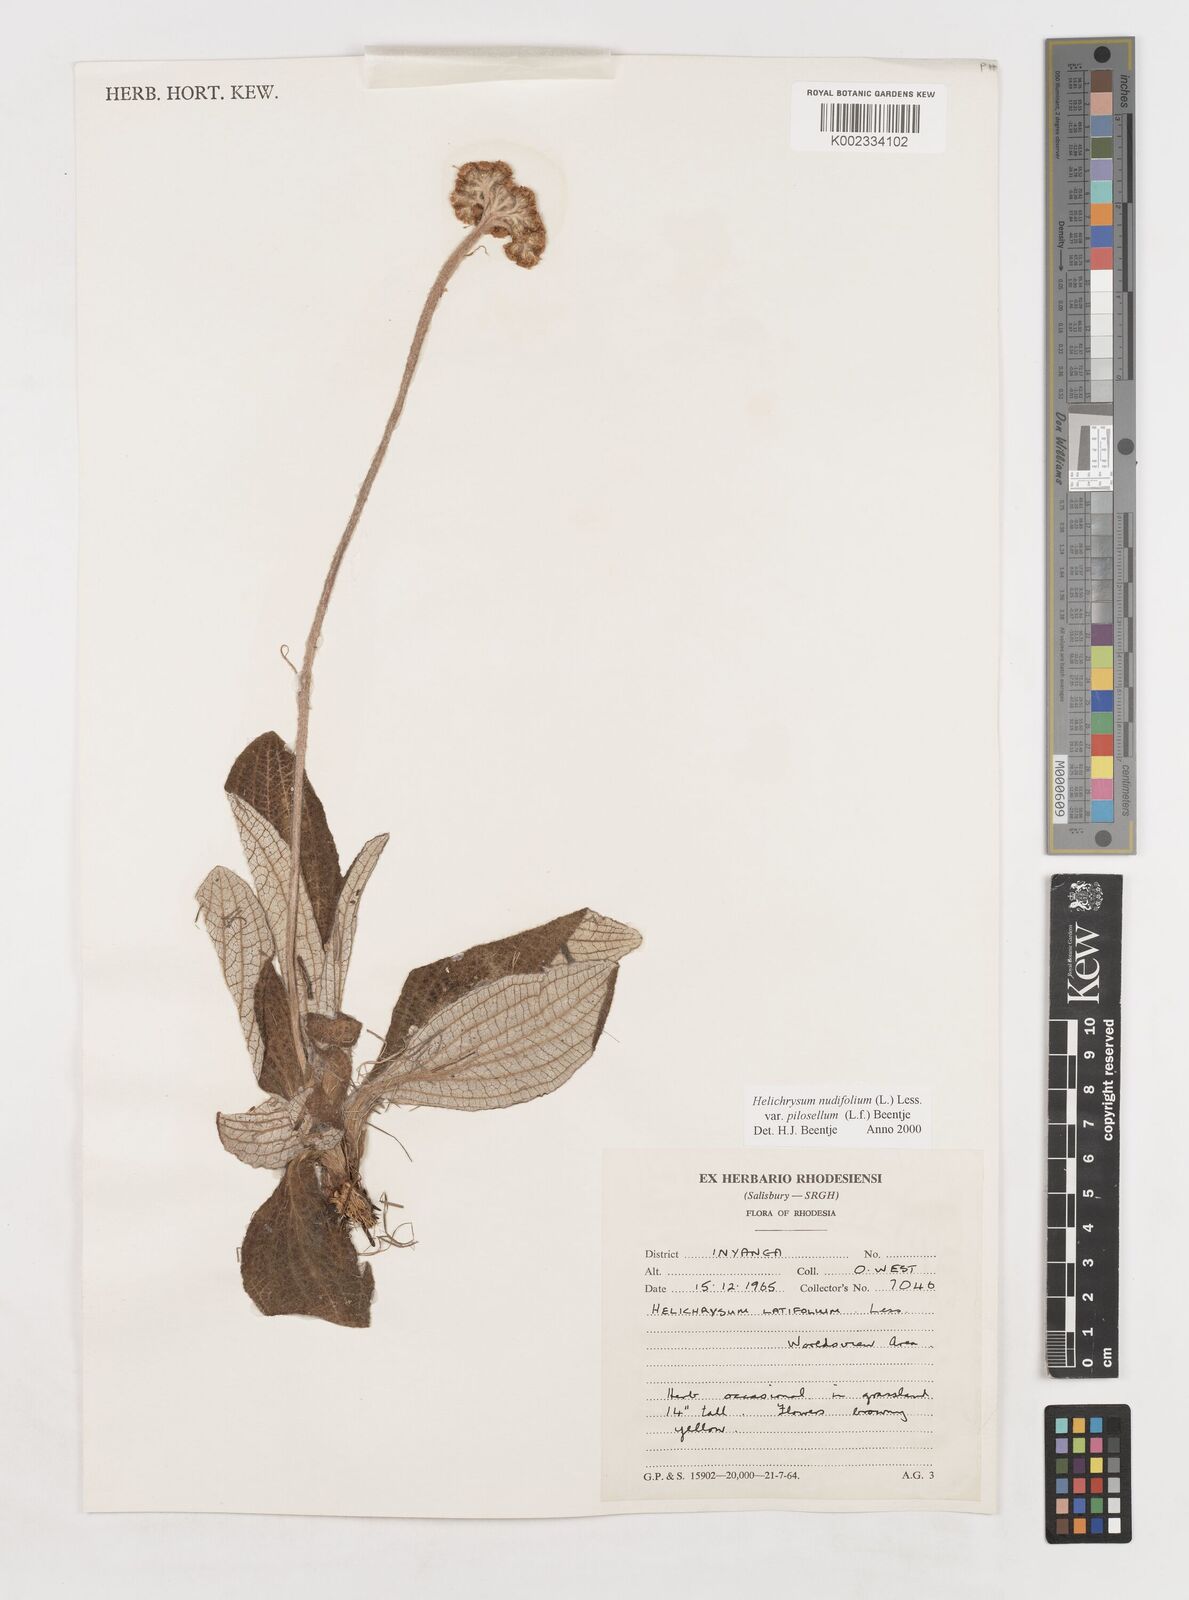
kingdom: Plantae
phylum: Tracheophyta
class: Magnoliopsida
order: Asterales
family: Asteraceae
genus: Helichrysum
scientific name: Helichrysum nudifolium
